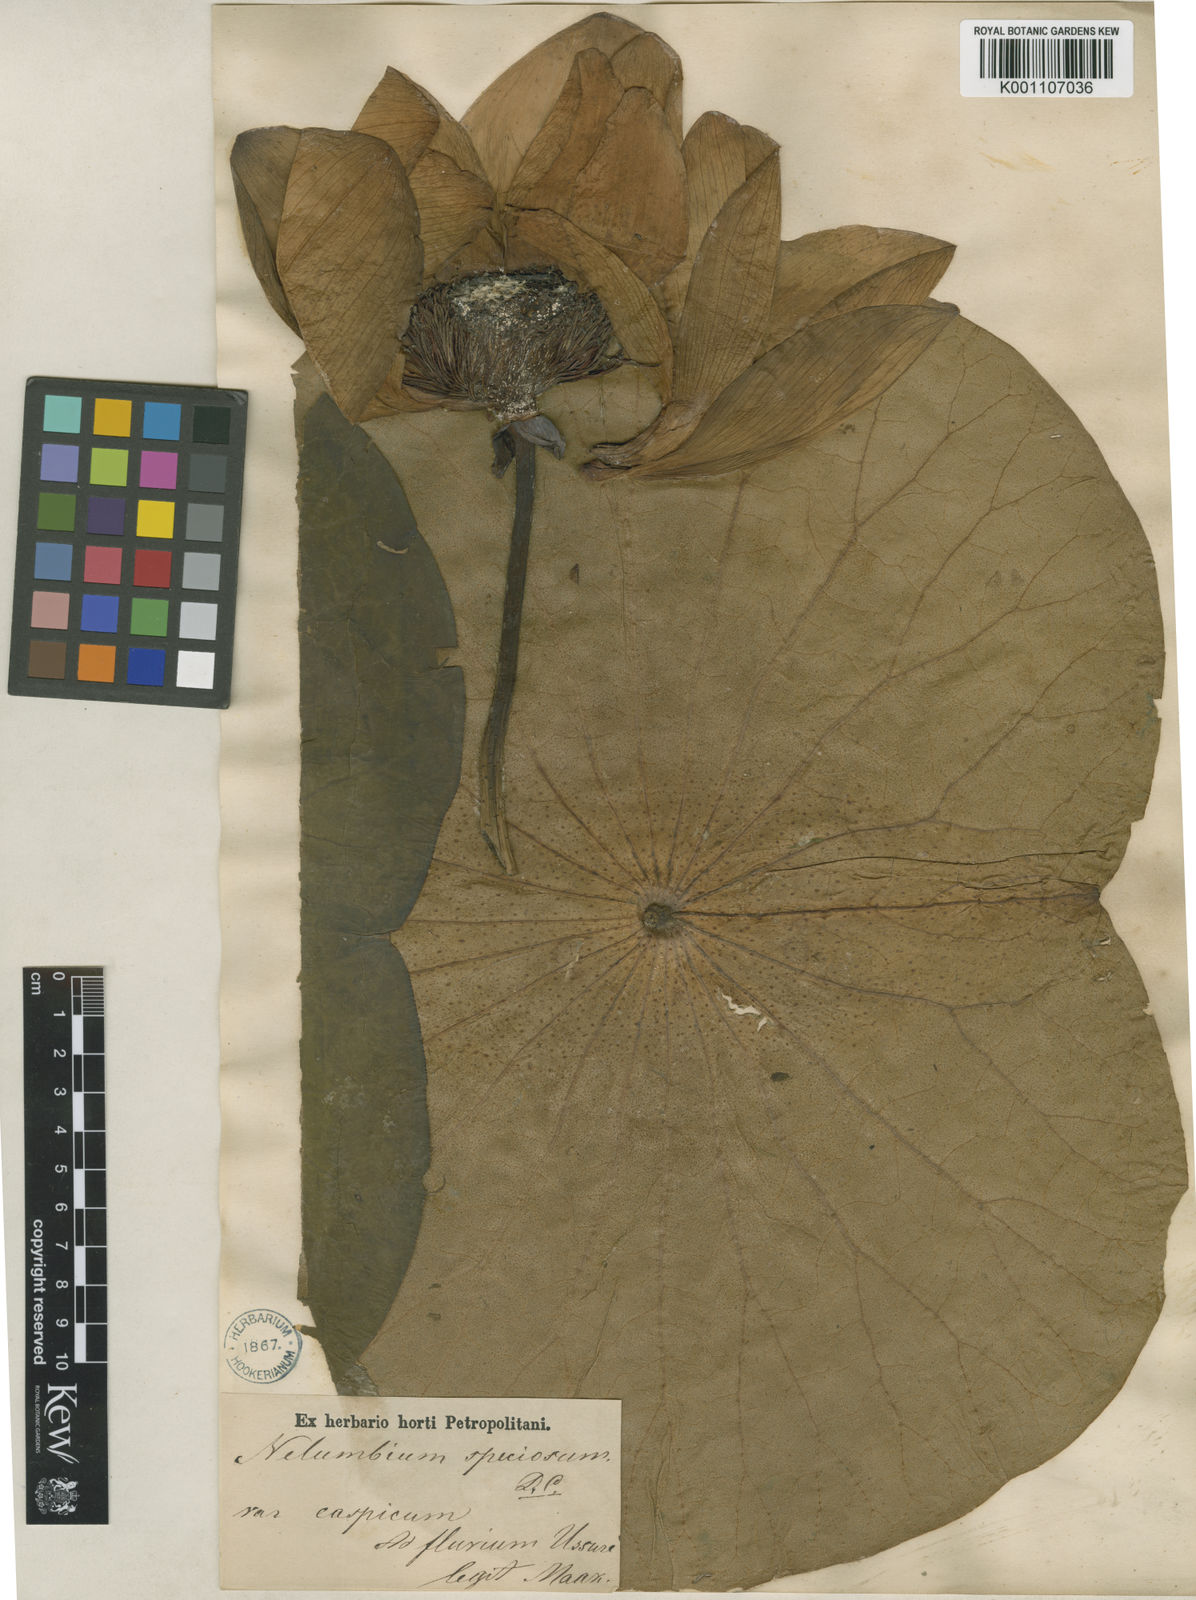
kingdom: Plantae
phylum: Tracheophyta
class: Magnoliopsida
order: Proteales
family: Nelumbonaceae
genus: Nelumbo
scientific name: Nelumbo
